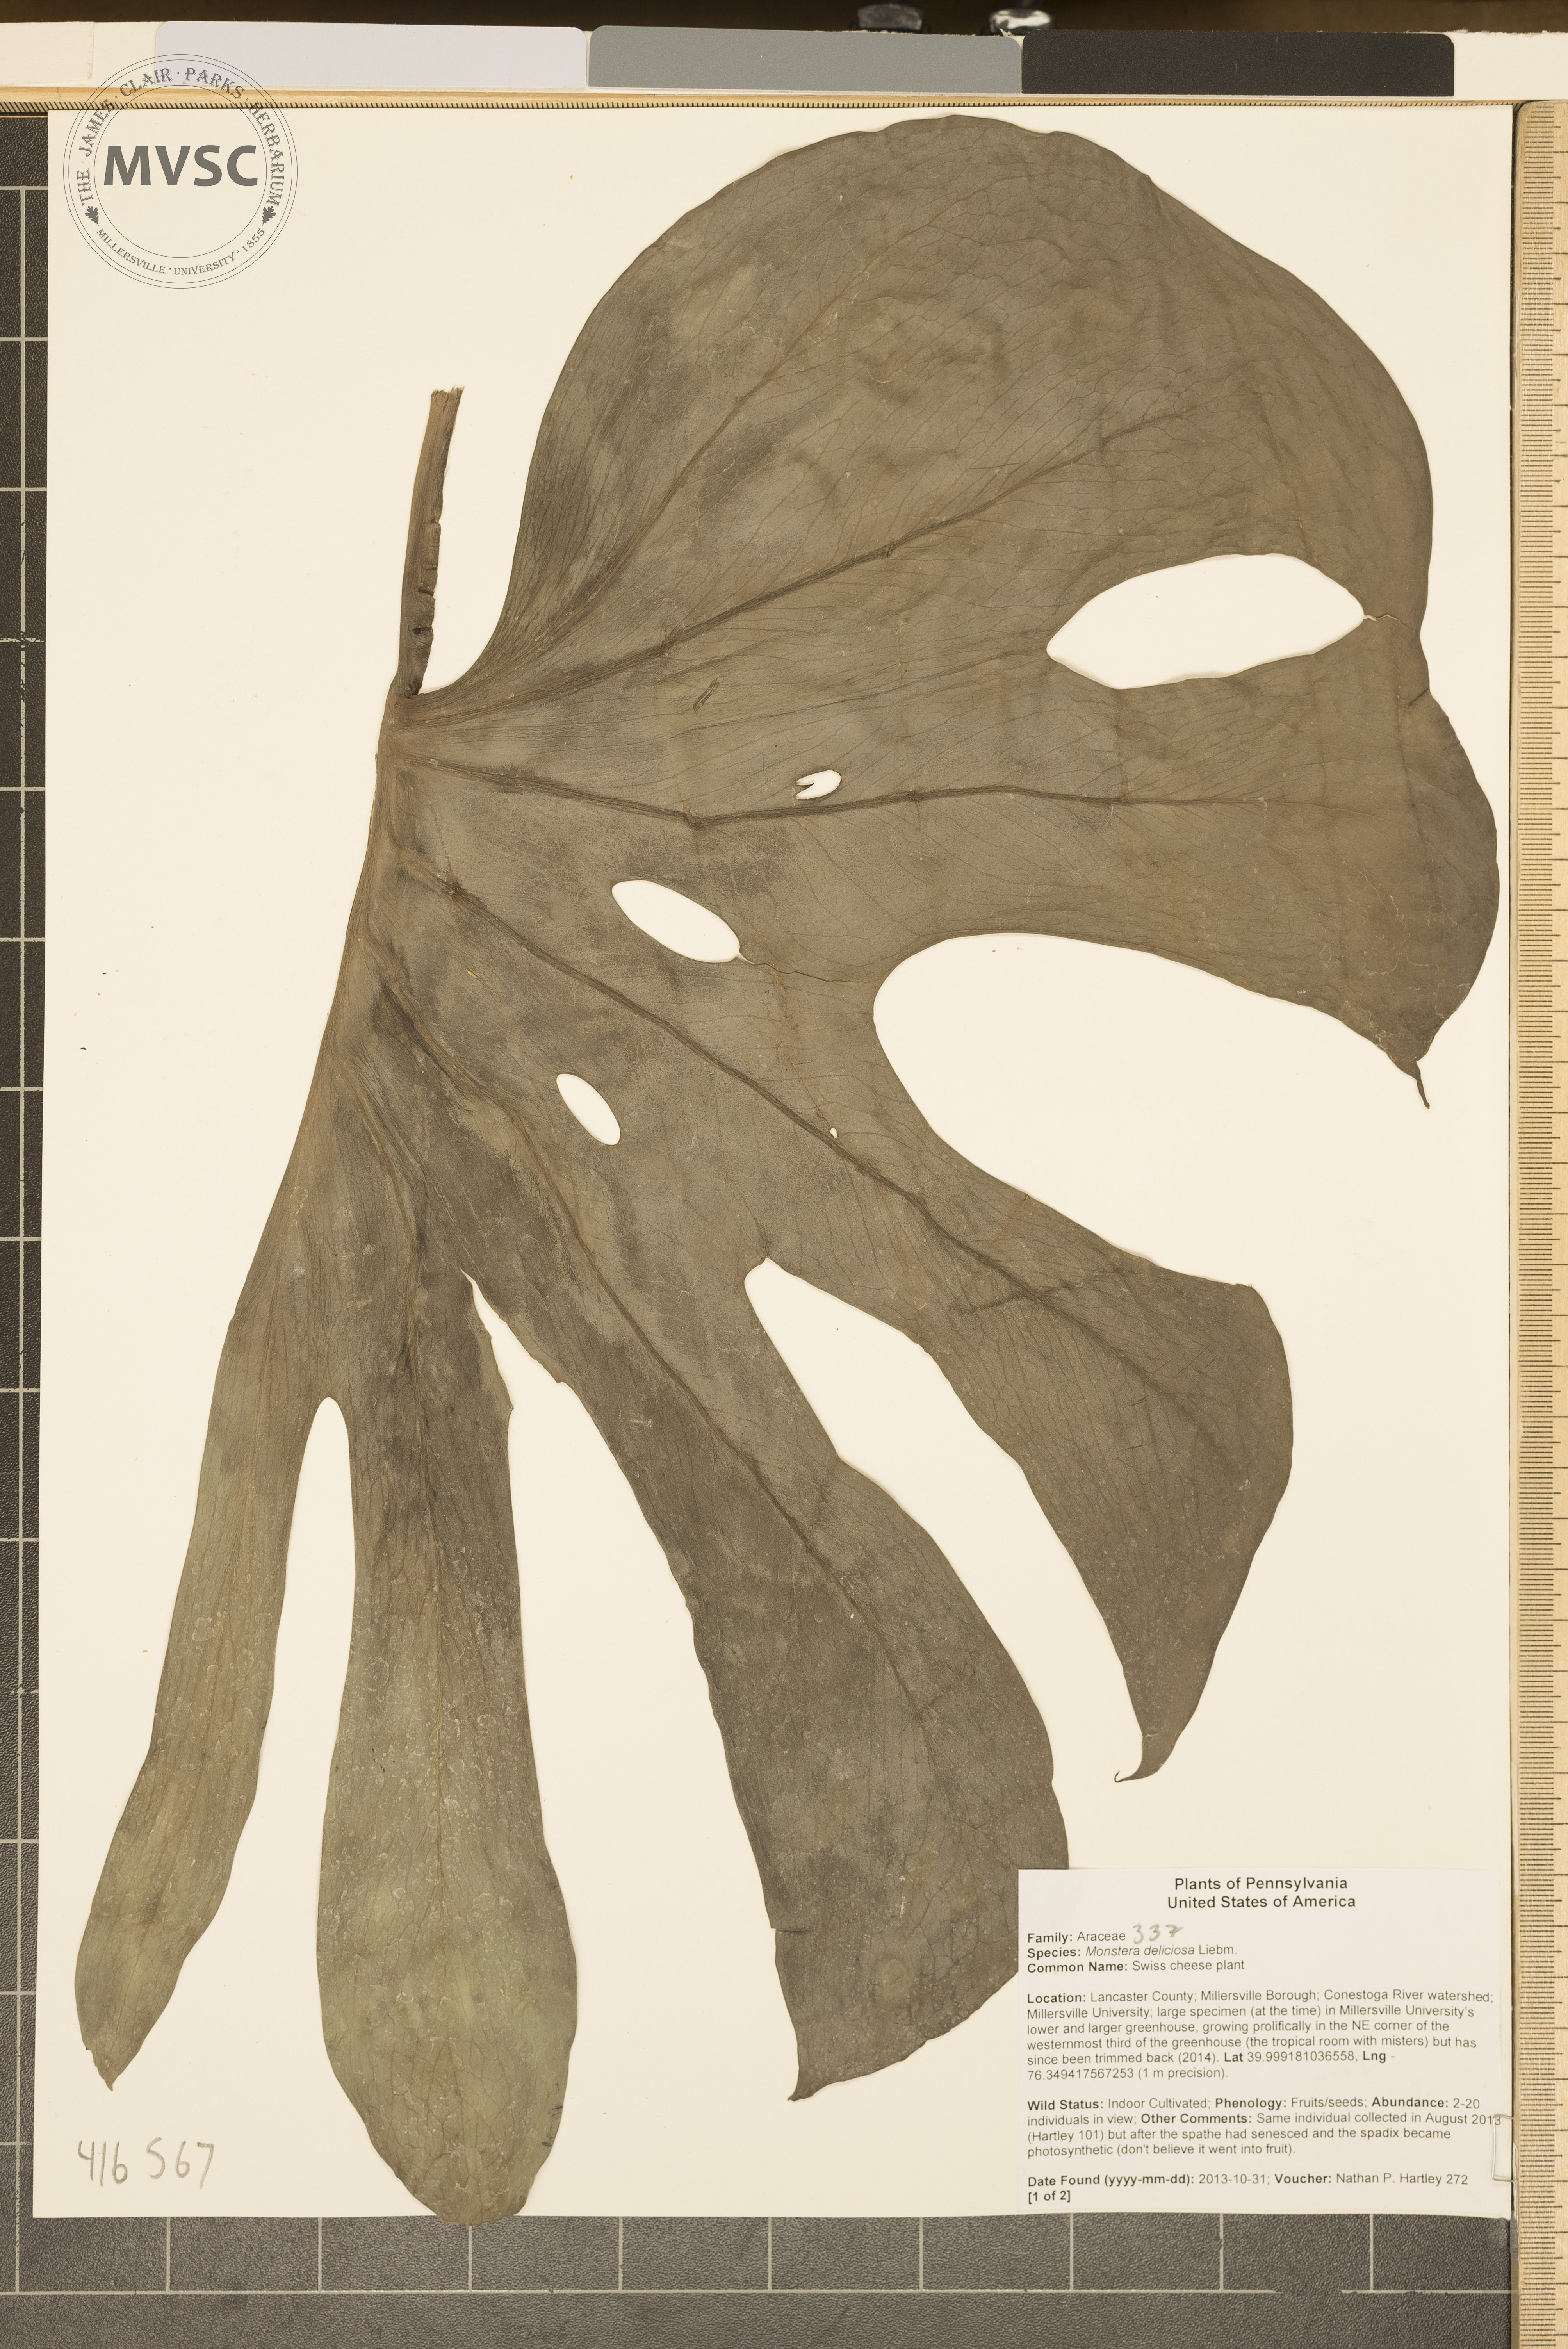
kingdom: Plantae
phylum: Tracheophyta
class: Liliopsida
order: Alismatales
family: Araceae
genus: Monstera
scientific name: Monstera deliciosa
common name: Swiss cheese plant
